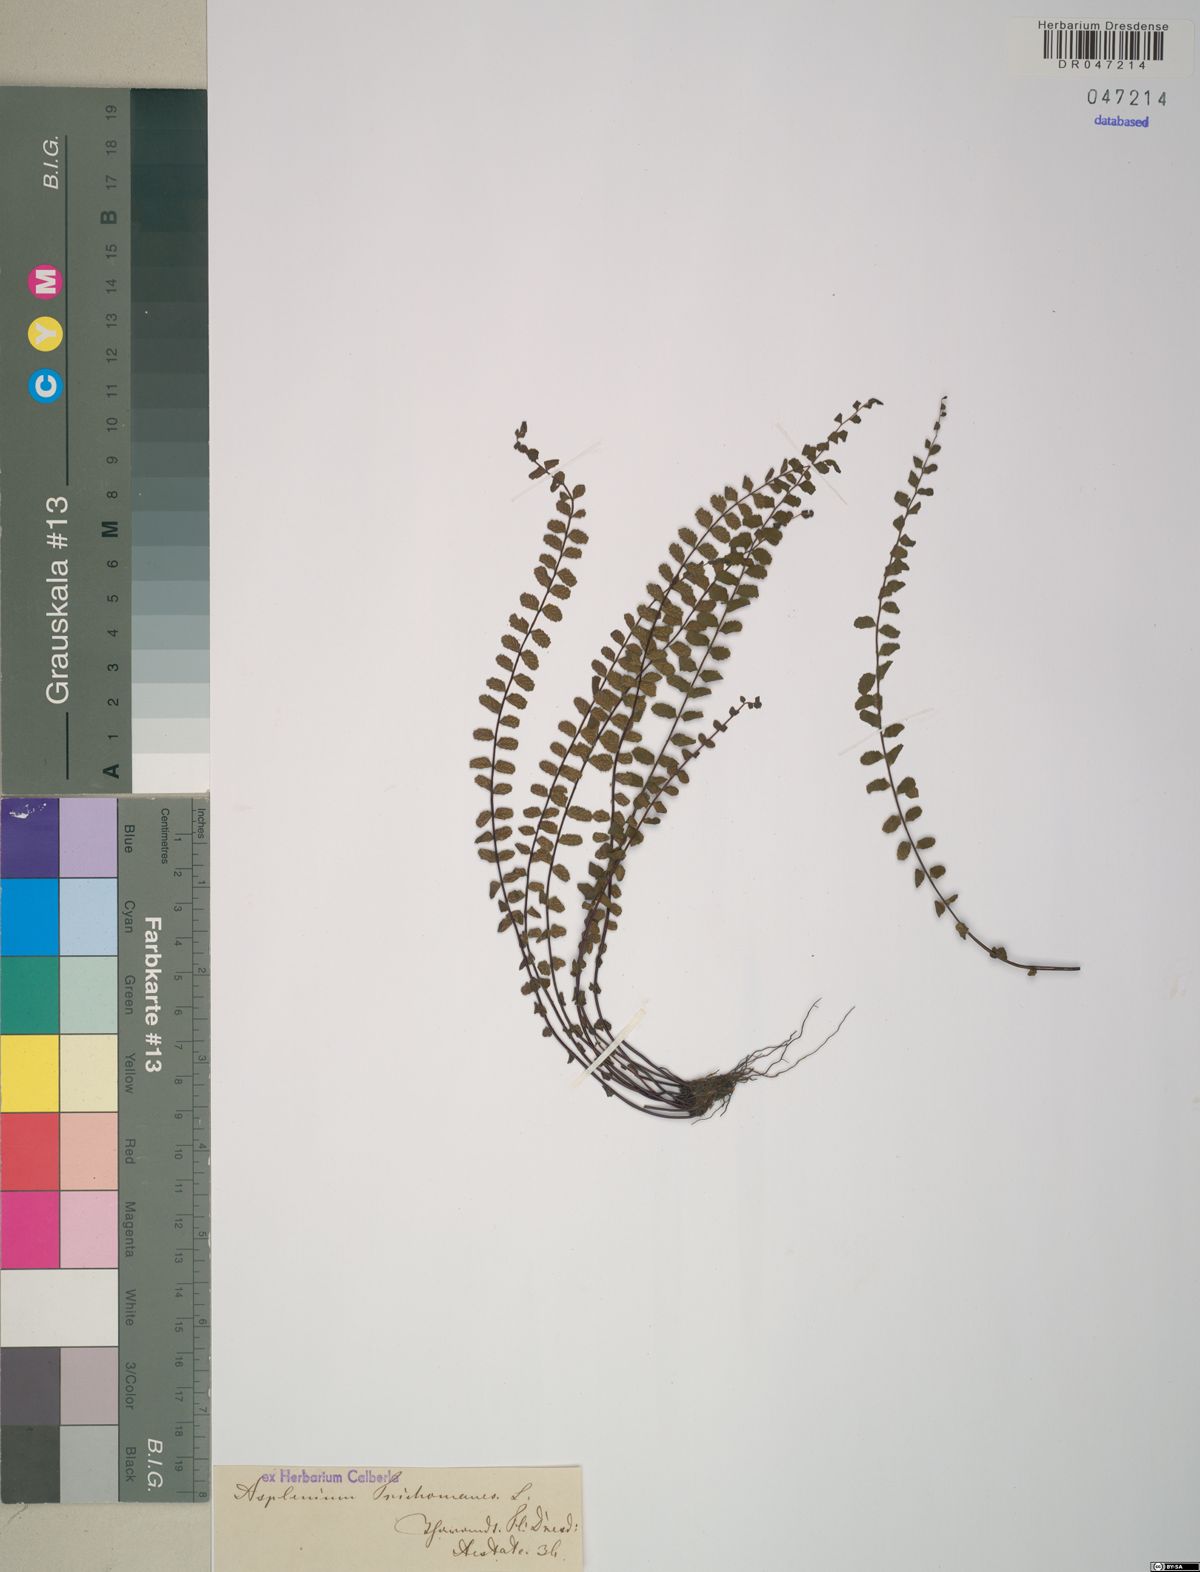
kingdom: Plantae
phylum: Tracheophyta
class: Polypodiopsida
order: Polypodiales
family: Aspleniaceae
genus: Asplenium
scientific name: Asplenium trichomanes
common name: Maidenhair spleenwort
